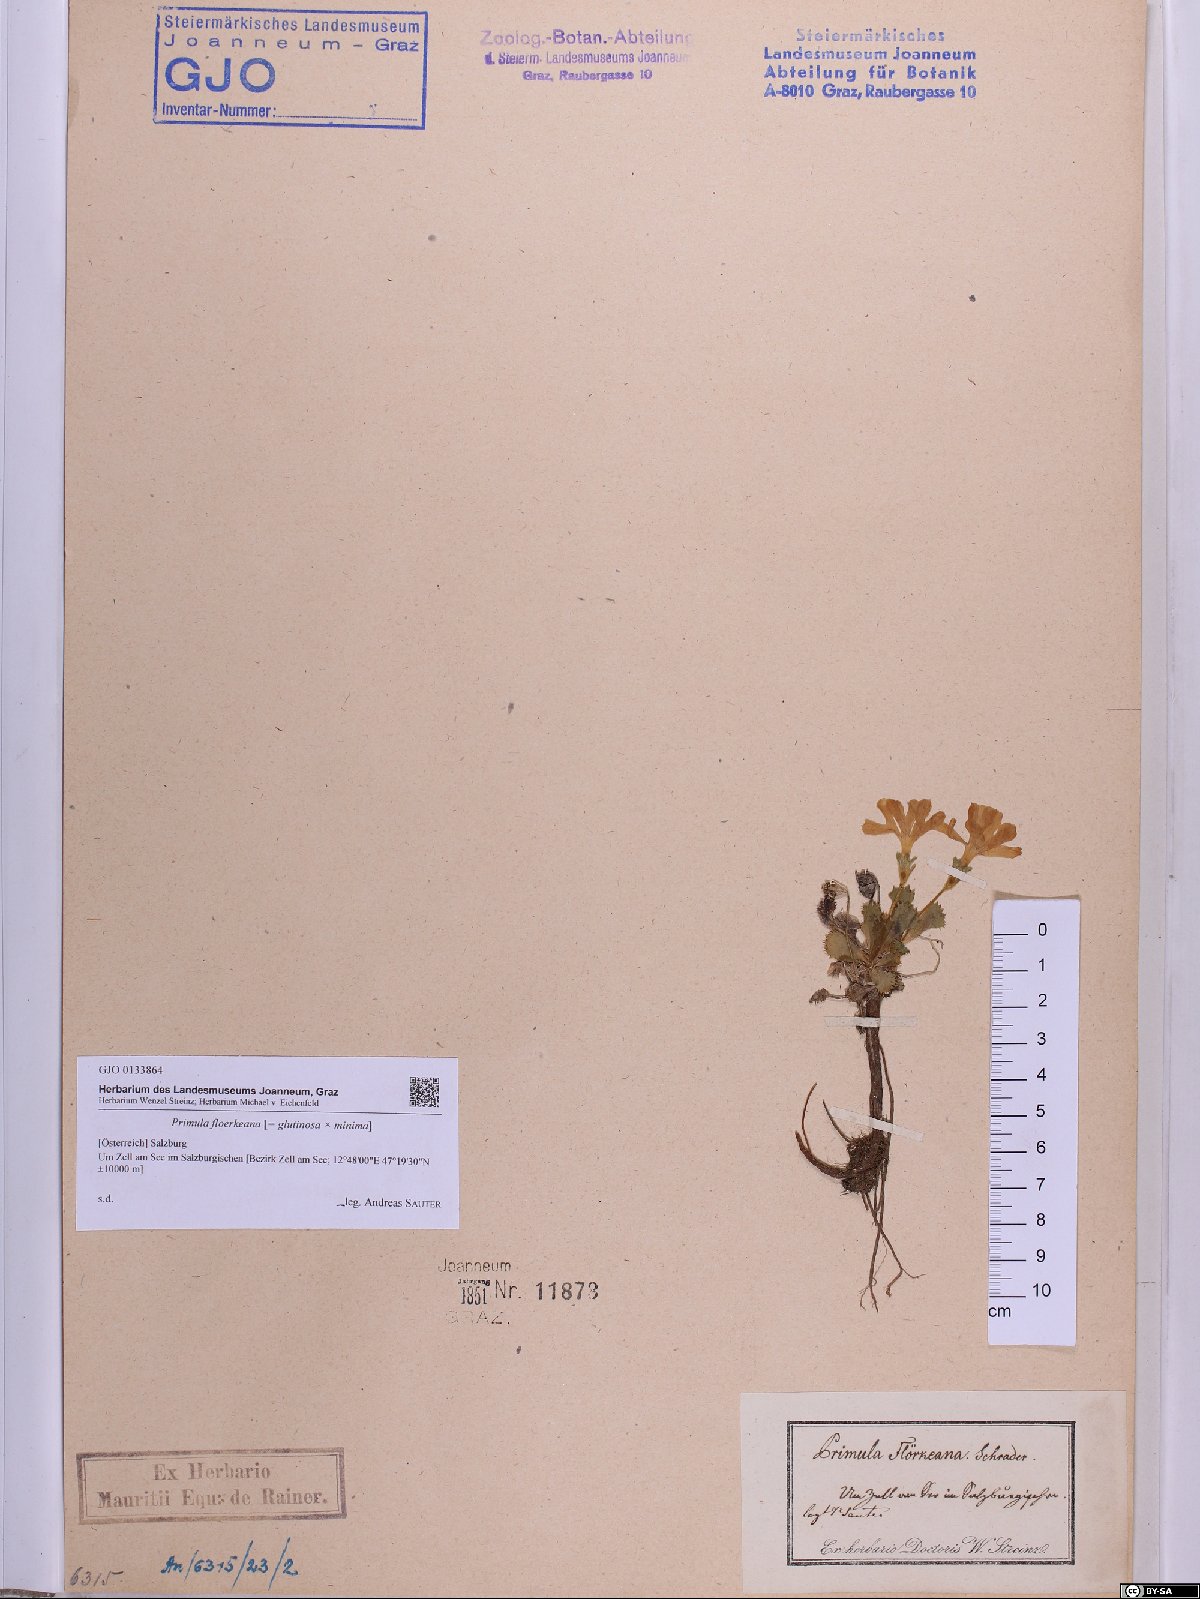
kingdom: Plantae
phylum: Tracheophyta
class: Magnoliopsida
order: Ericales
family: Primulaceae
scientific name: Primulaceae
